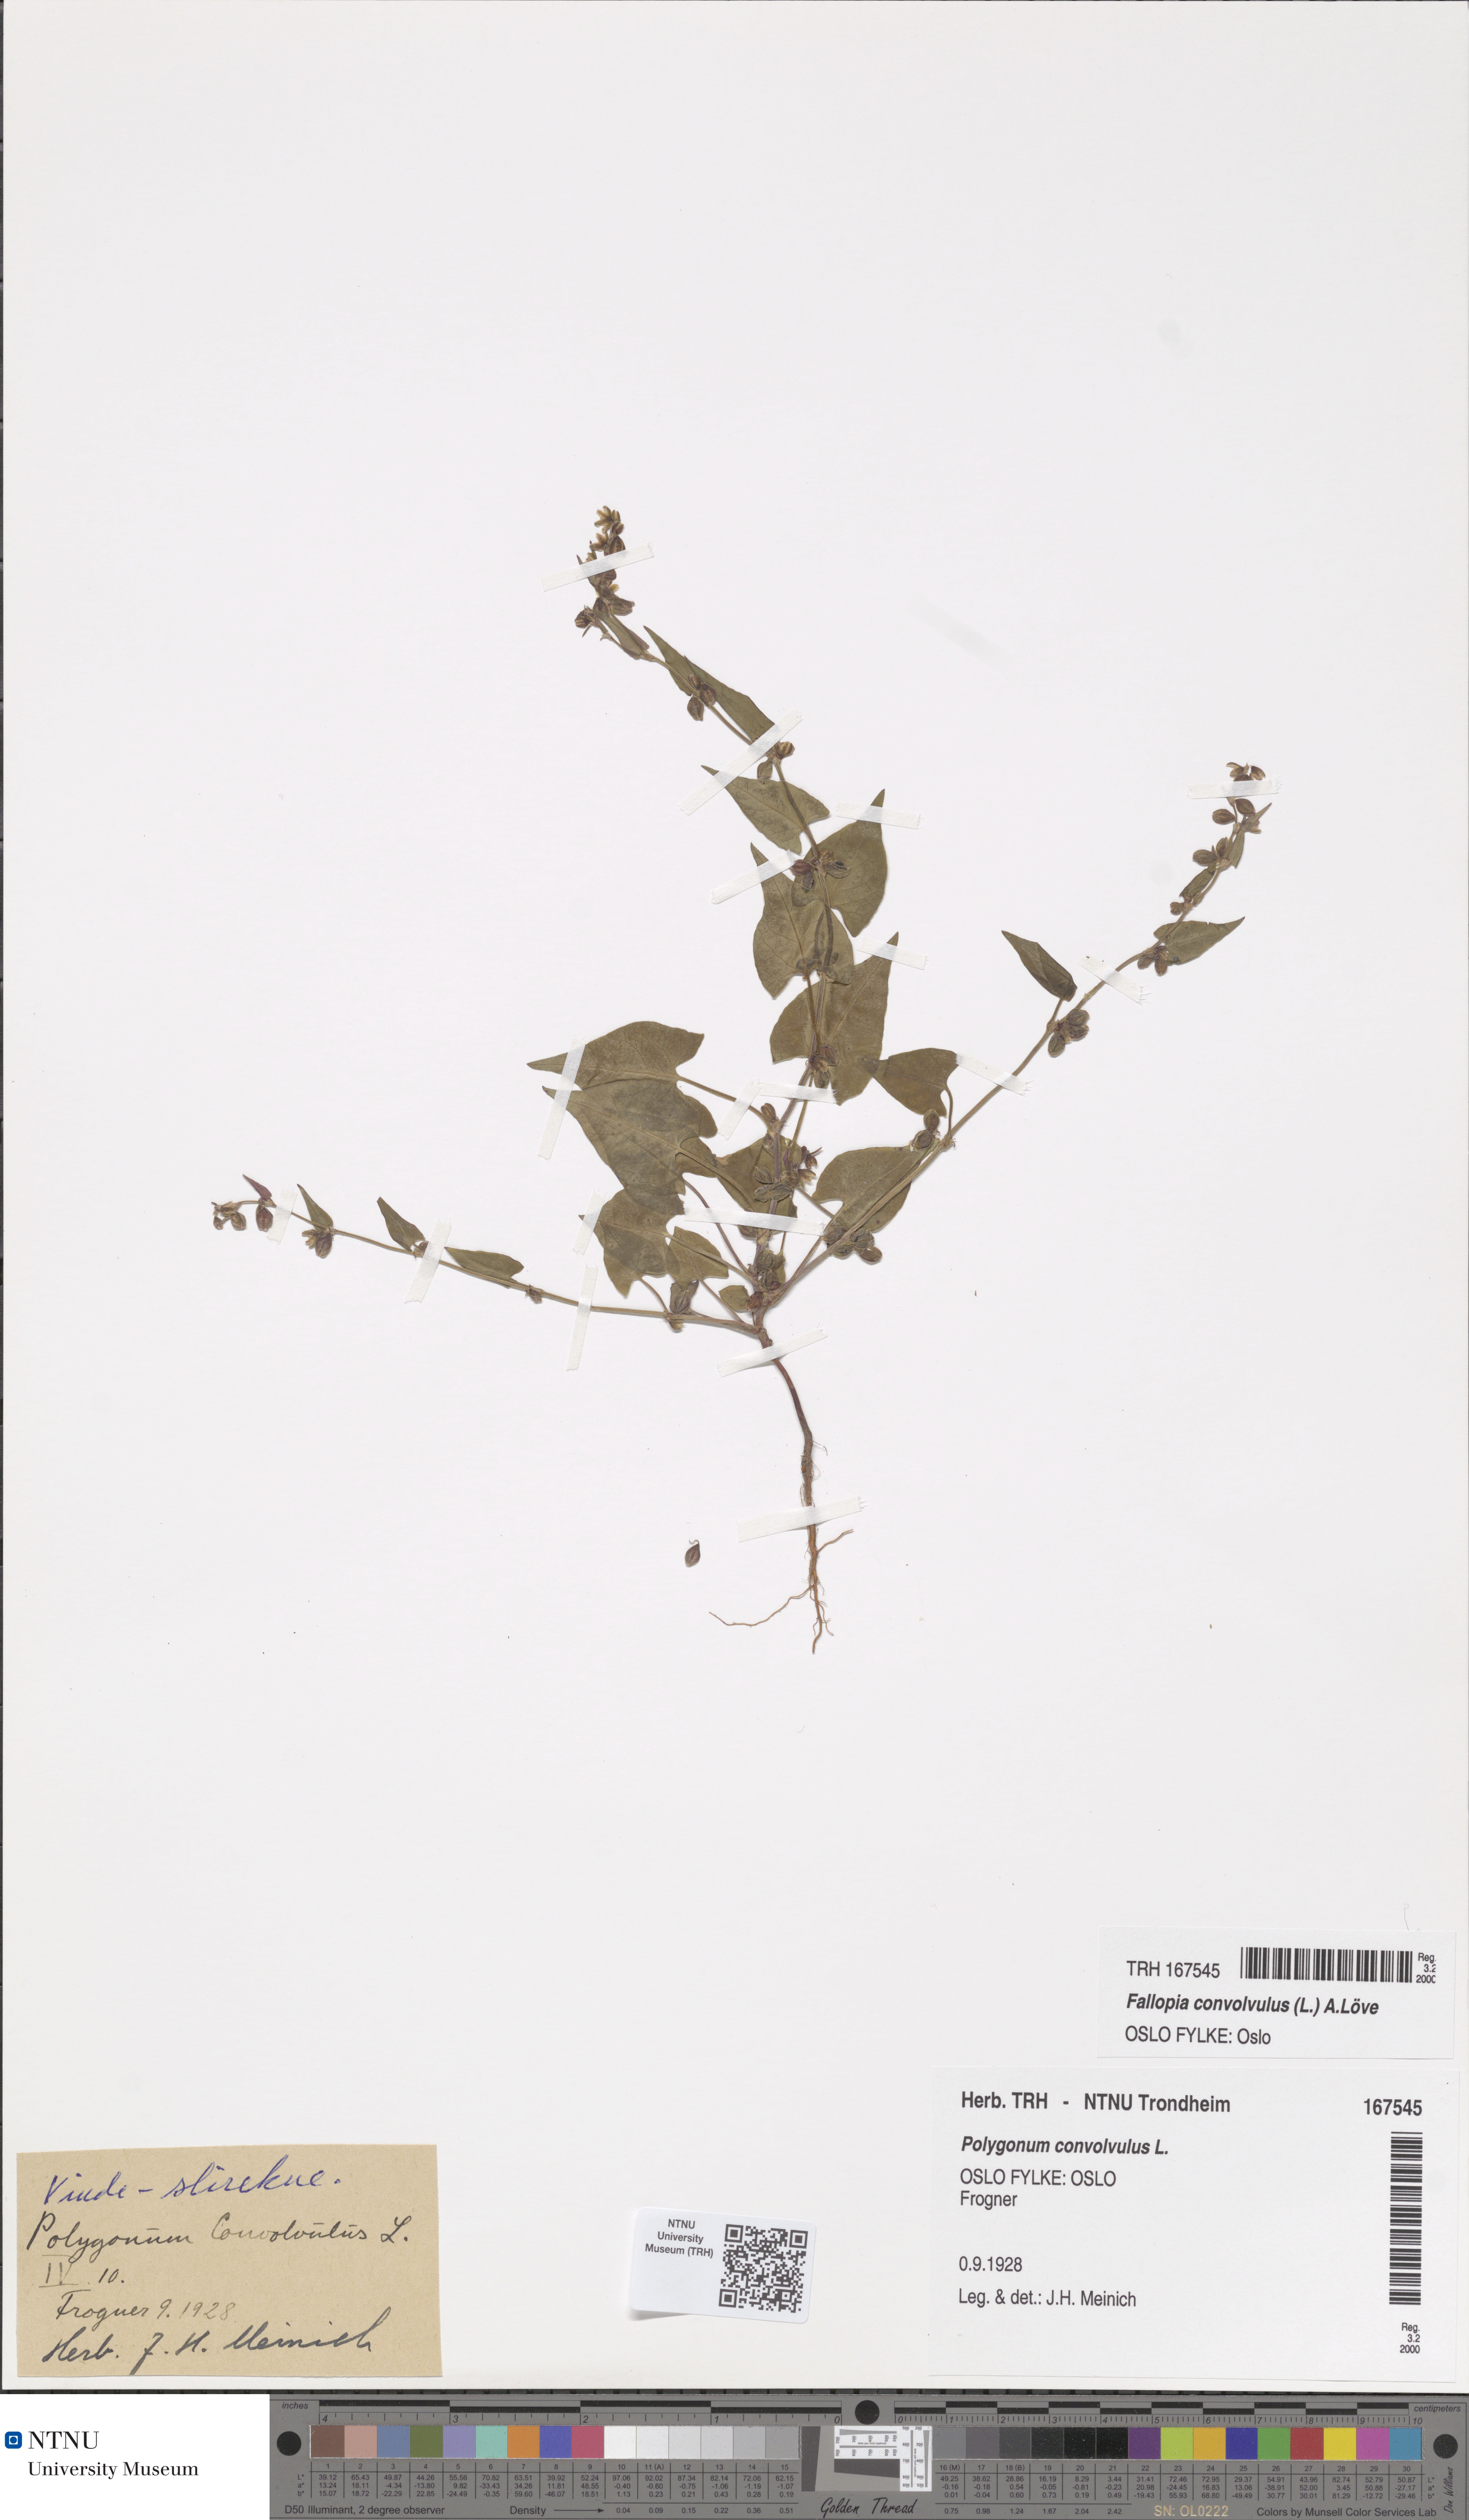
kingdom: Plantae
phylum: Tracheophyta
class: Magnoliopsida
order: Caryophyllales
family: Polygonaceae
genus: Fallopia
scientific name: Fallopia convolvulus
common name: Black bindweed
